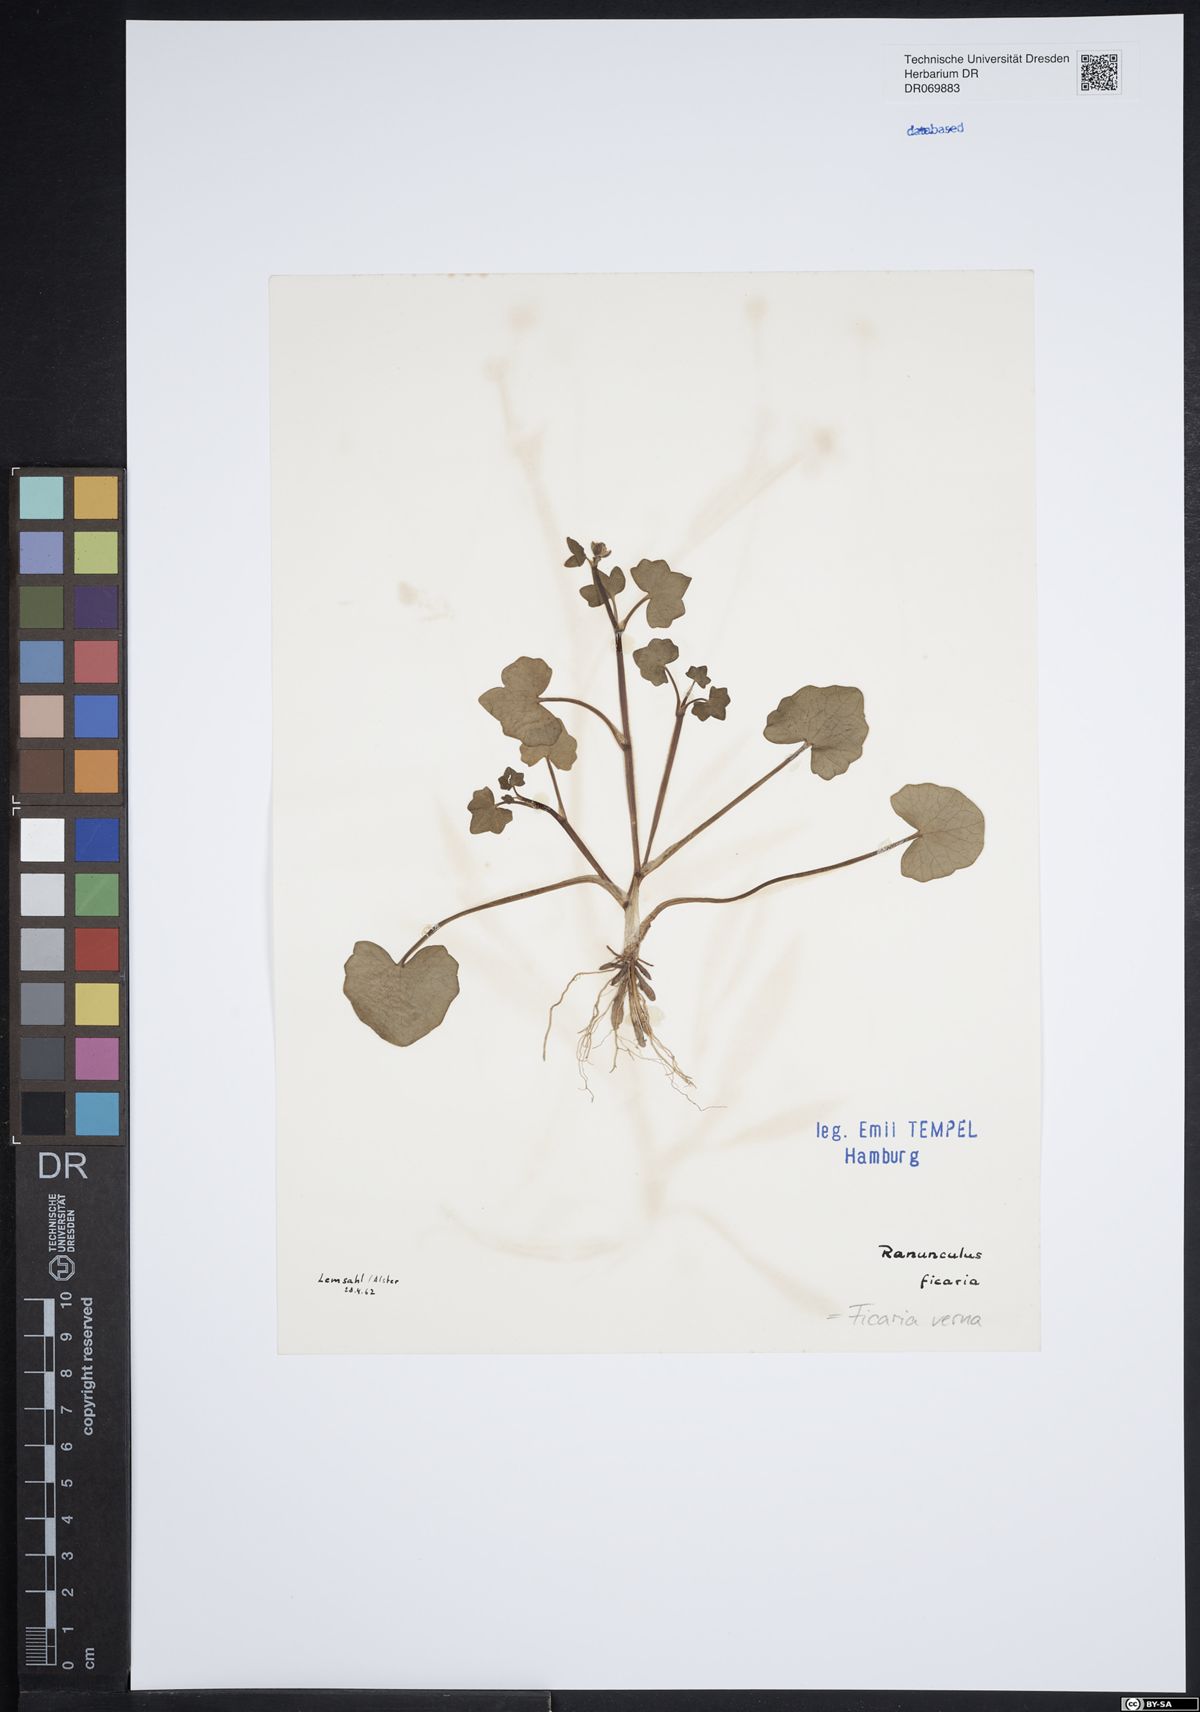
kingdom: Plantae
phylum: Tracheophyta
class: Magnoliopsida
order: Ranunculales
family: Ranunculaceae
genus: Ficaria
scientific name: Ficaria verna
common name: Lesser celandine
